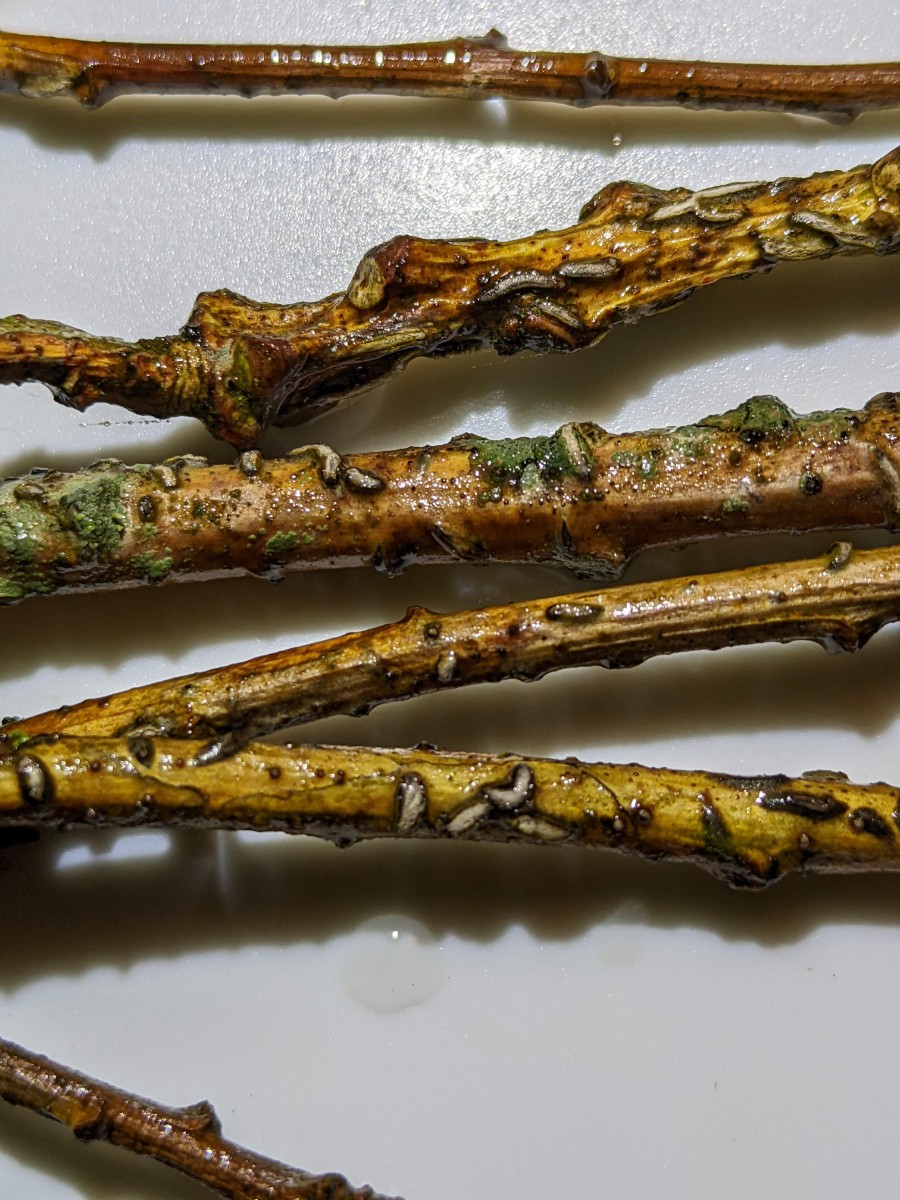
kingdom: Fungi
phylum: Ascomycota
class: Leotiomycetes
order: Rhytismatales
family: Rhytismataceae
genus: Colpoma
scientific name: Colpoma quercinum
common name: ege-sprækkeskive
